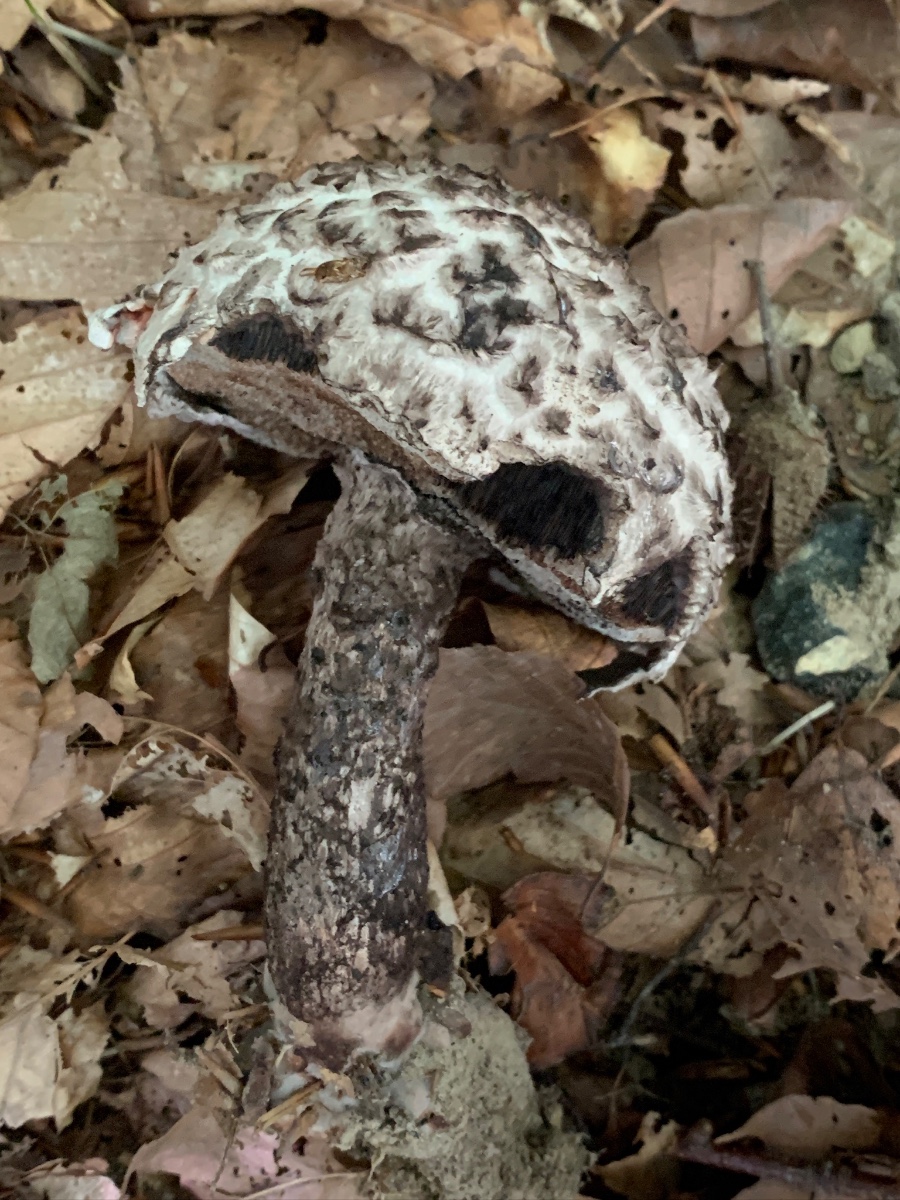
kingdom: Fungi
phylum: Basidiomycota
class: Agaricomycetes
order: Boletales
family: Boletaceae
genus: Strobilomyces
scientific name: Strobilomyces strobilaceus
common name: koglerørhat
